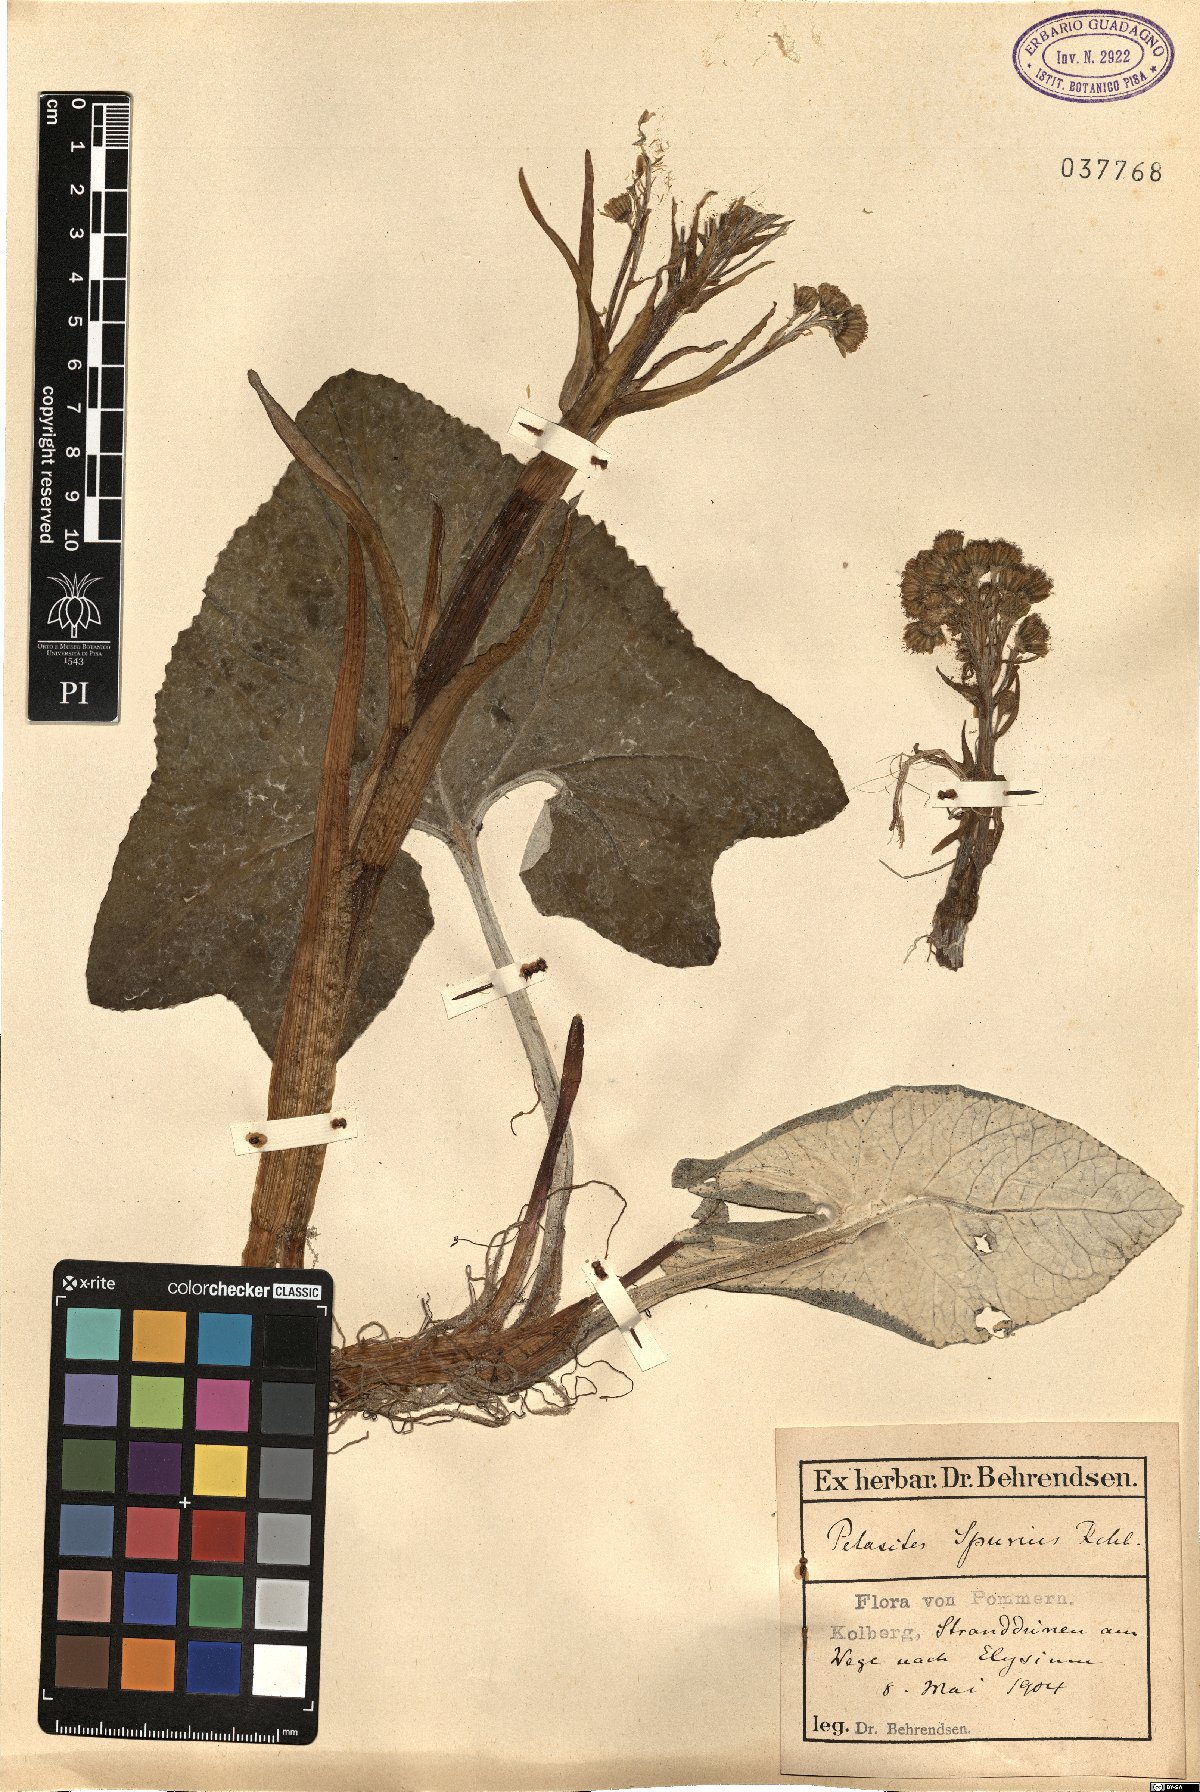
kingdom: Plantae
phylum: Tracheophyta
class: Magnoliopsida
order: Asterales
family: Asteraceae
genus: Petasites
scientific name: Petasites spurius
